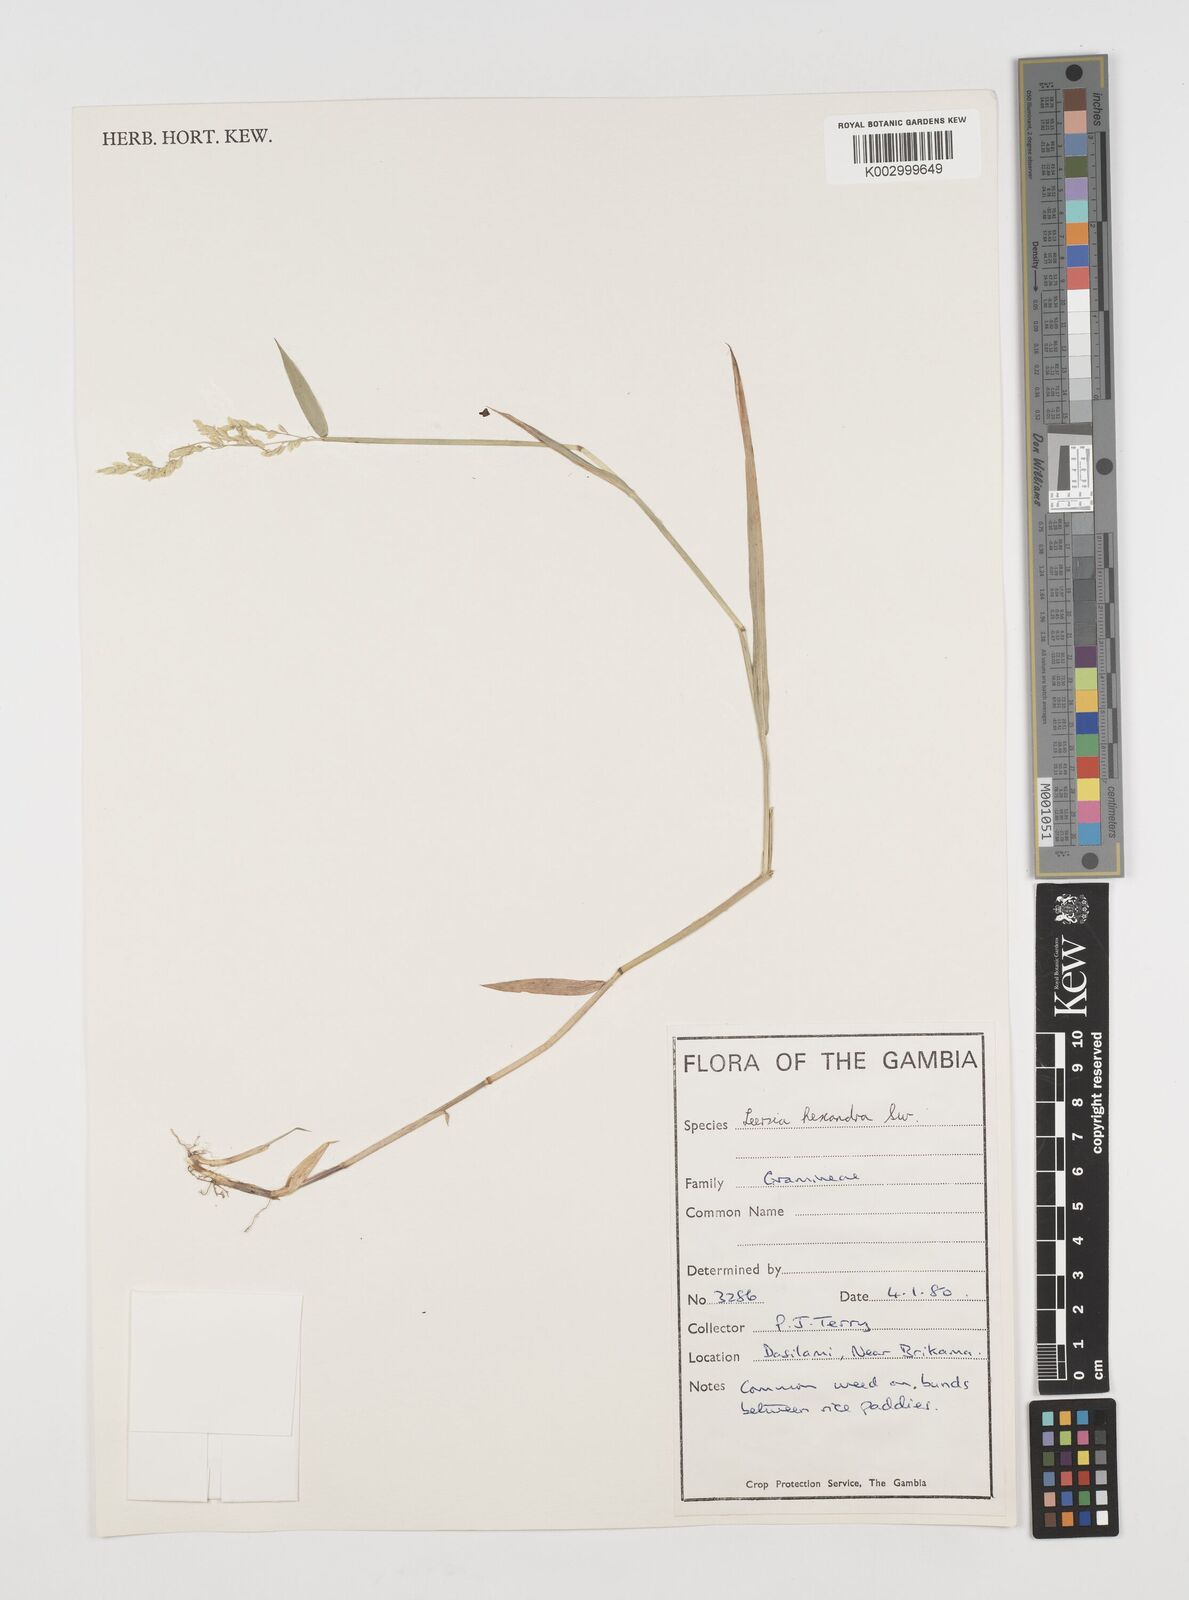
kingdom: Plantae
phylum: Tracheophyta
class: Liliopsida
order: Poales
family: Poaceae
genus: Leersia
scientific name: Leersia hexandra
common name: Southern cut grass
